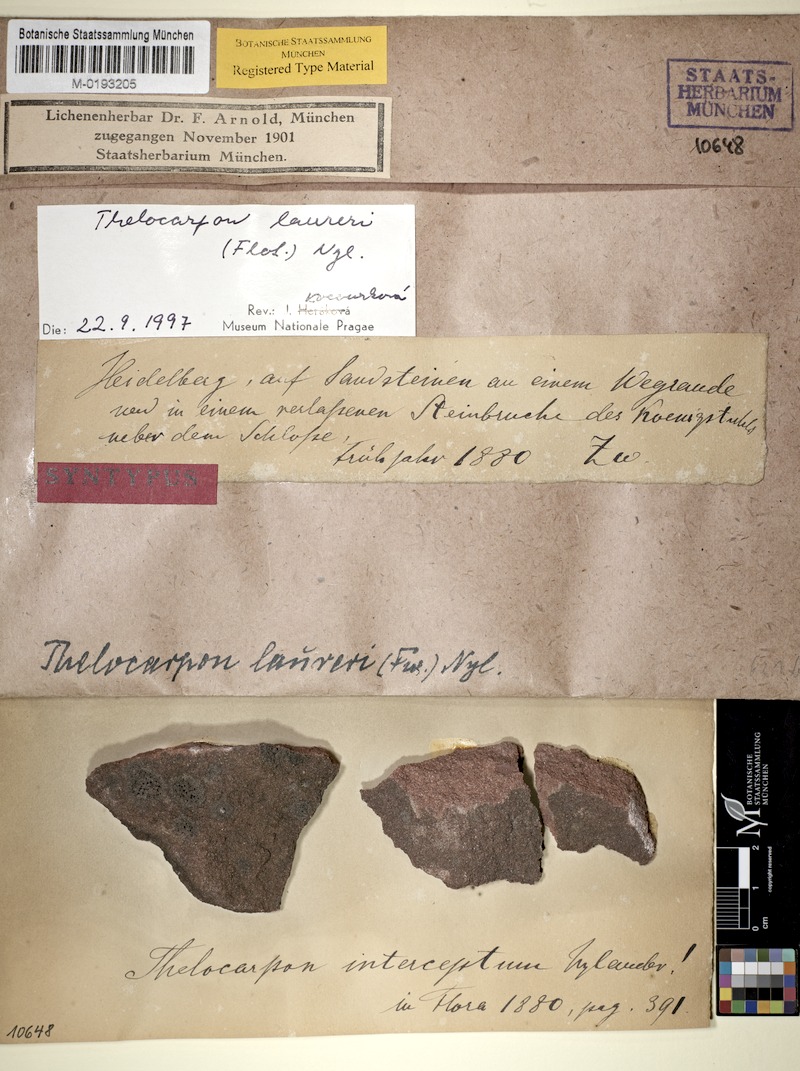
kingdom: Fungi
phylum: Ascomycota
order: Thelocarpales
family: Thelocarpaceae
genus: Thelocarpon
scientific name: Thelocarpon laureri
